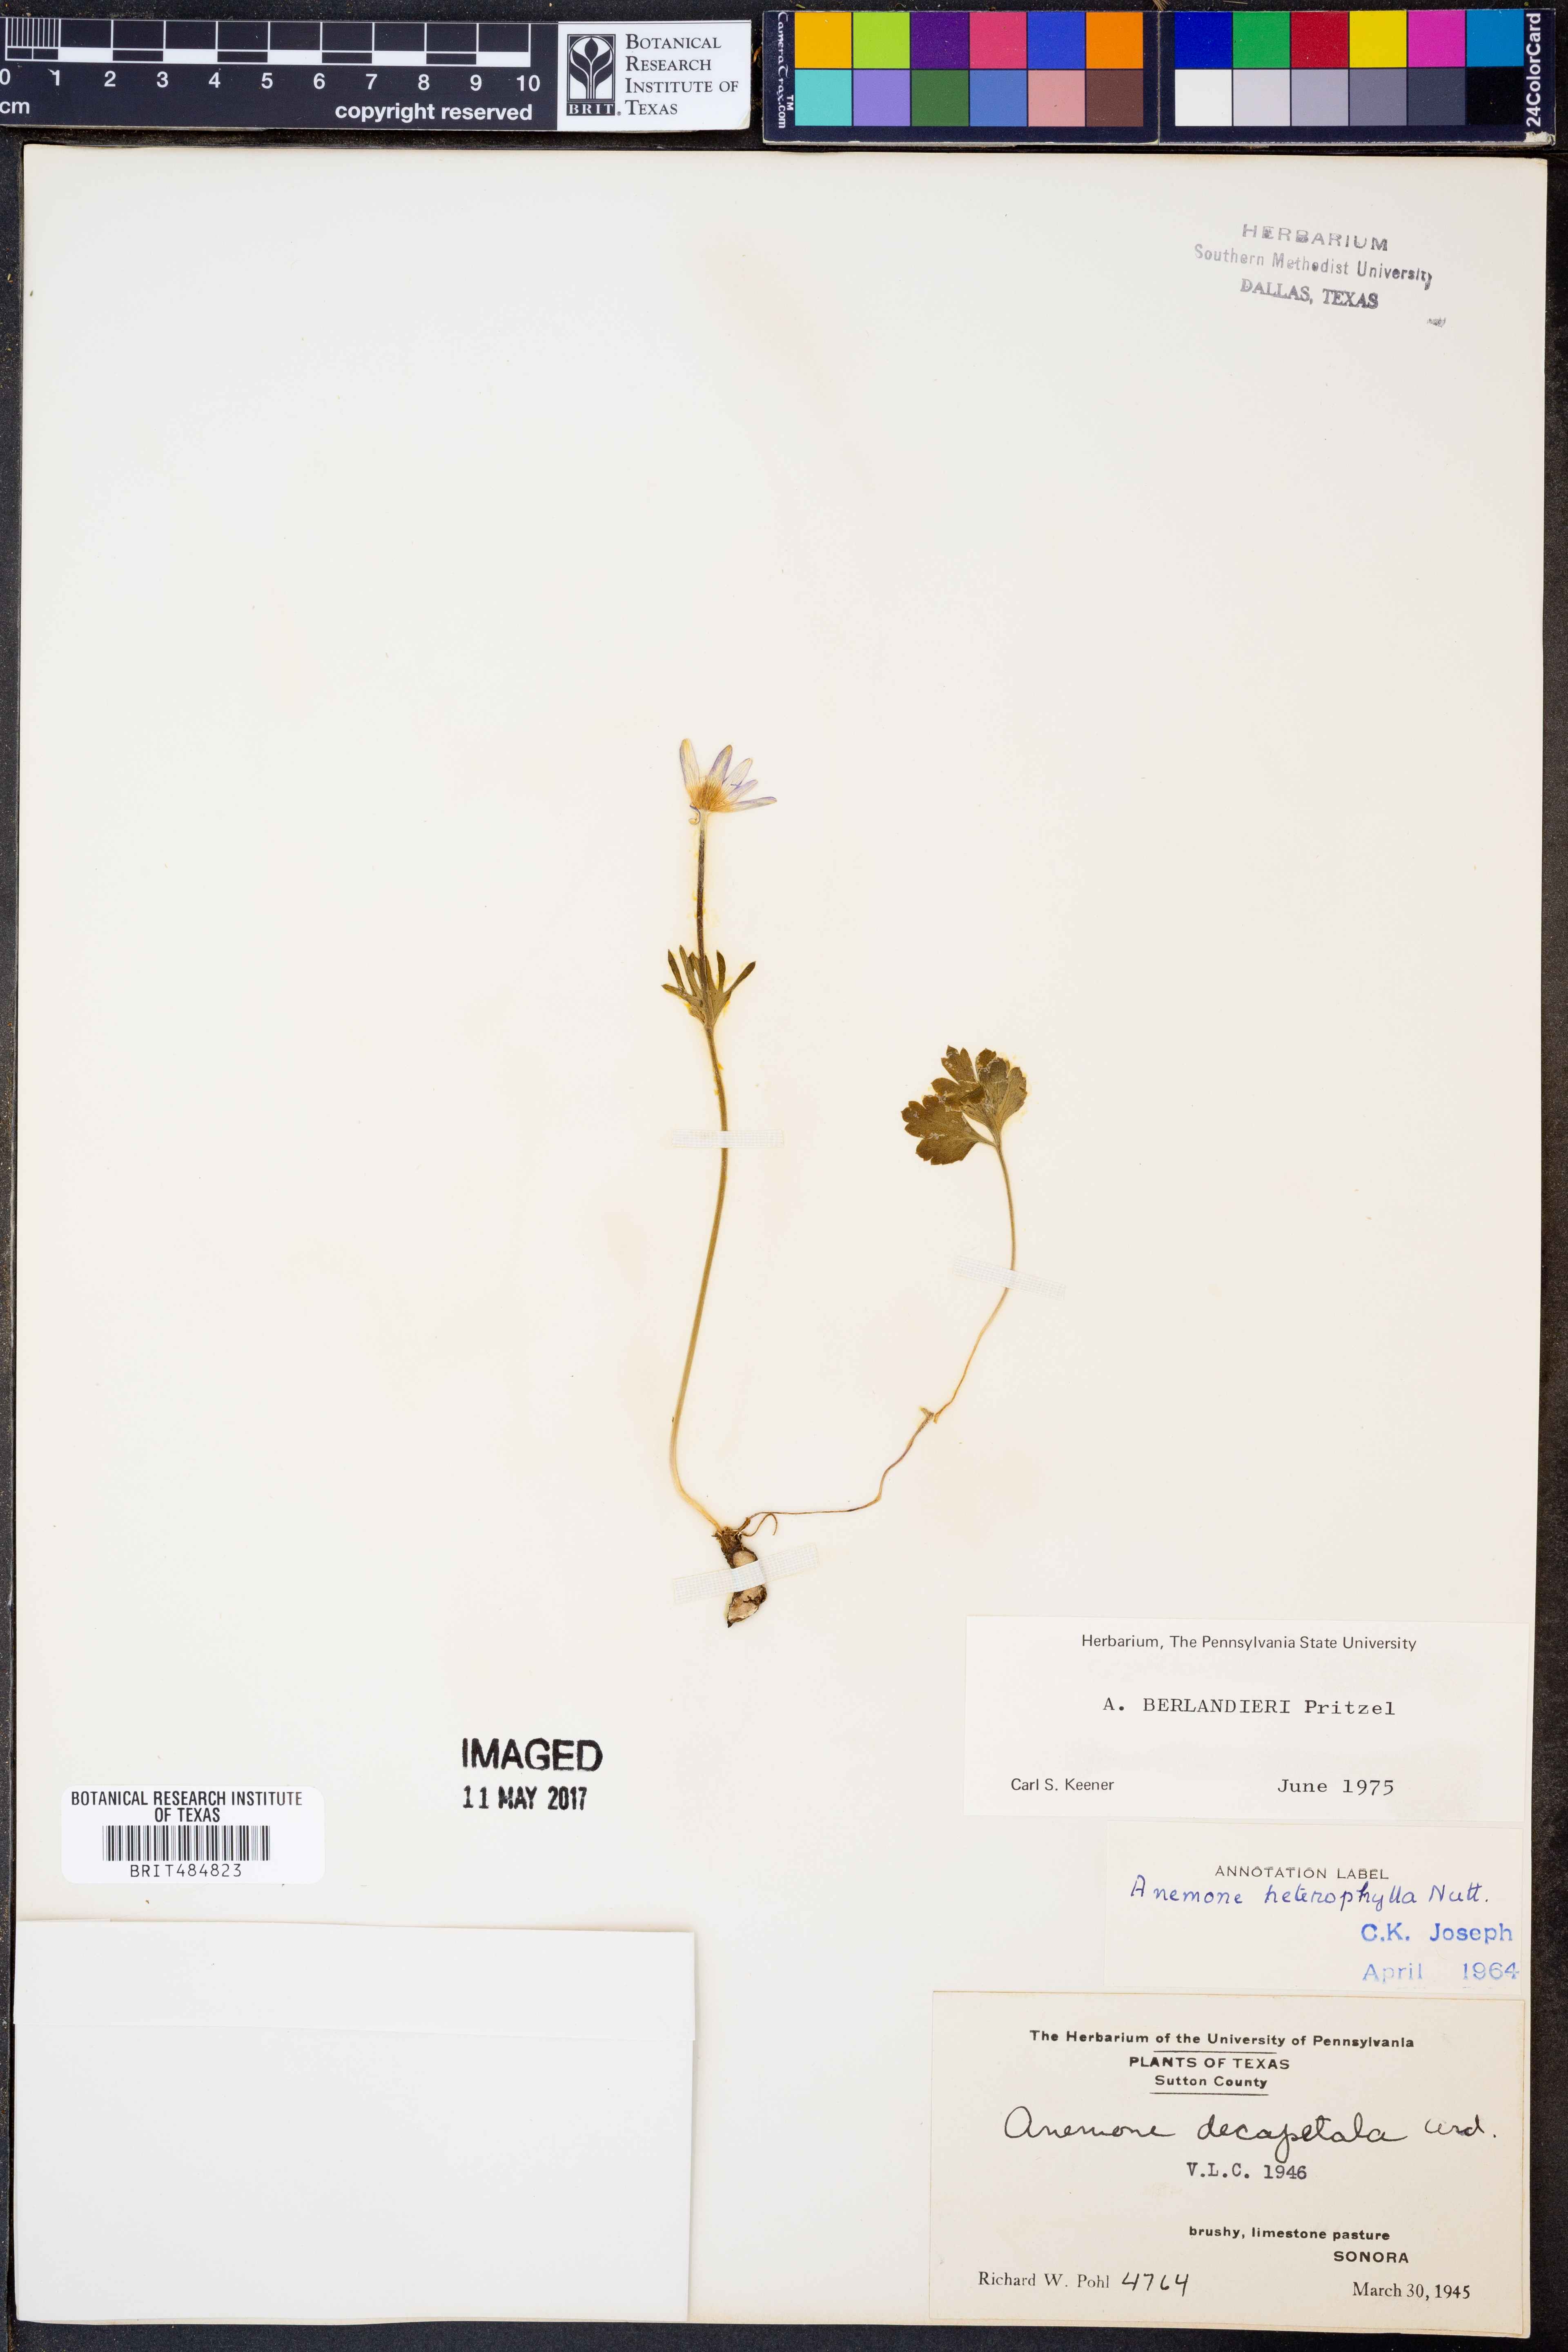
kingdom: Plantae
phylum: Tracheophyta
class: Magnoliopsida
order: Ranunculales
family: Ranunculaceae
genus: Anemone
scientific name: Anemone berlandieri
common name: Ten-petal anemone
